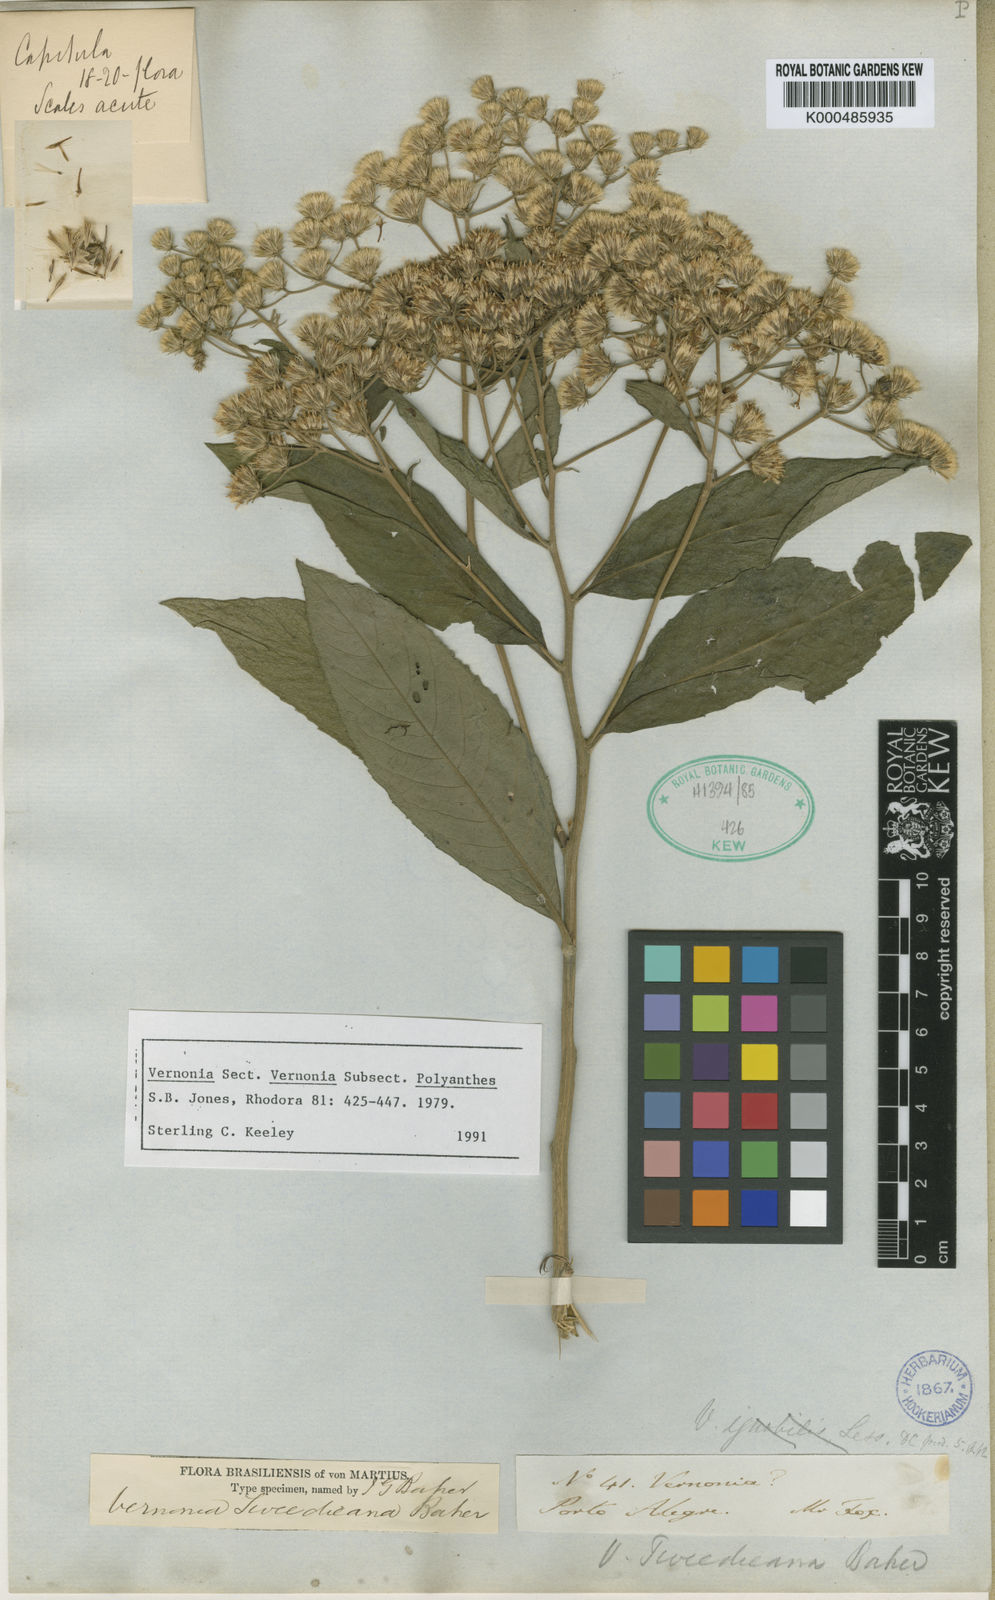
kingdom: Plantae
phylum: Tracheophyta
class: Magnoliopsida
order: Asterales
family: Asteraceae
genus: Vernonanthura
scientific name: Vernonanthura tweedieana
